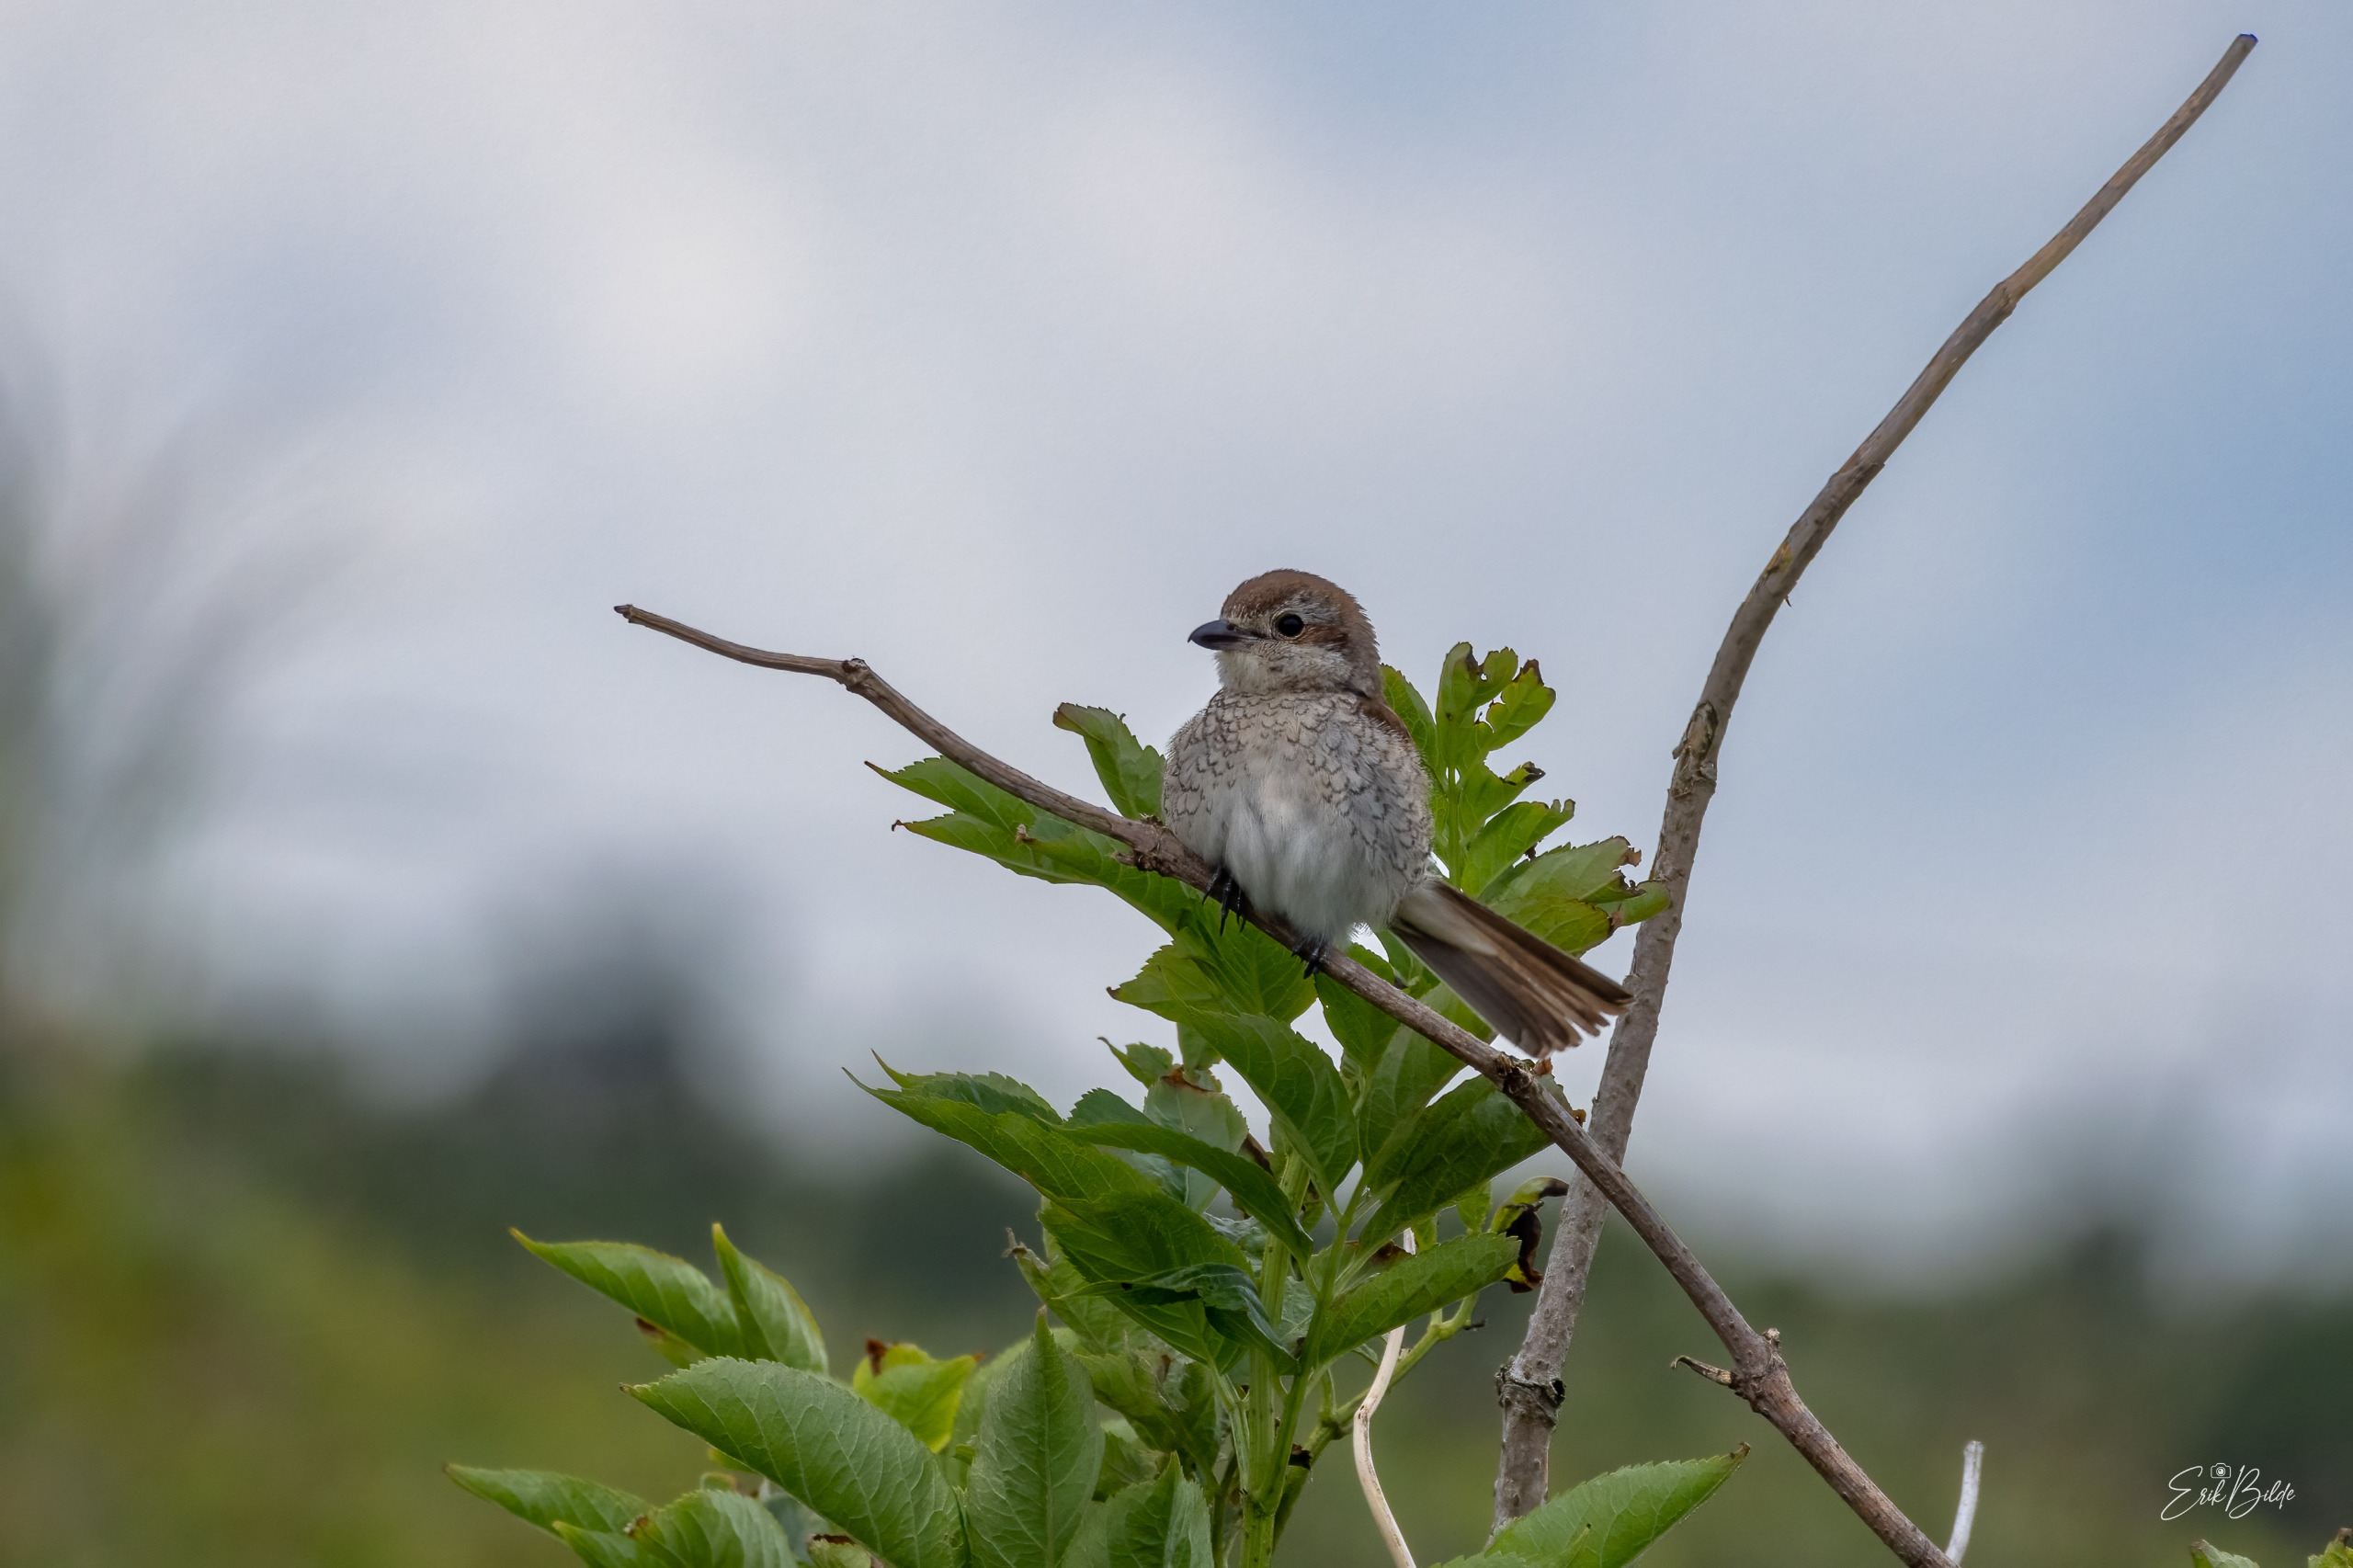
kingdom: Animalia
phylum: Chordata
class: Aves
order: Passeriformes
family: Laniidae
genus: Lanius
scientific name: Lanius collurio
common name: Rødrygget tornskade
